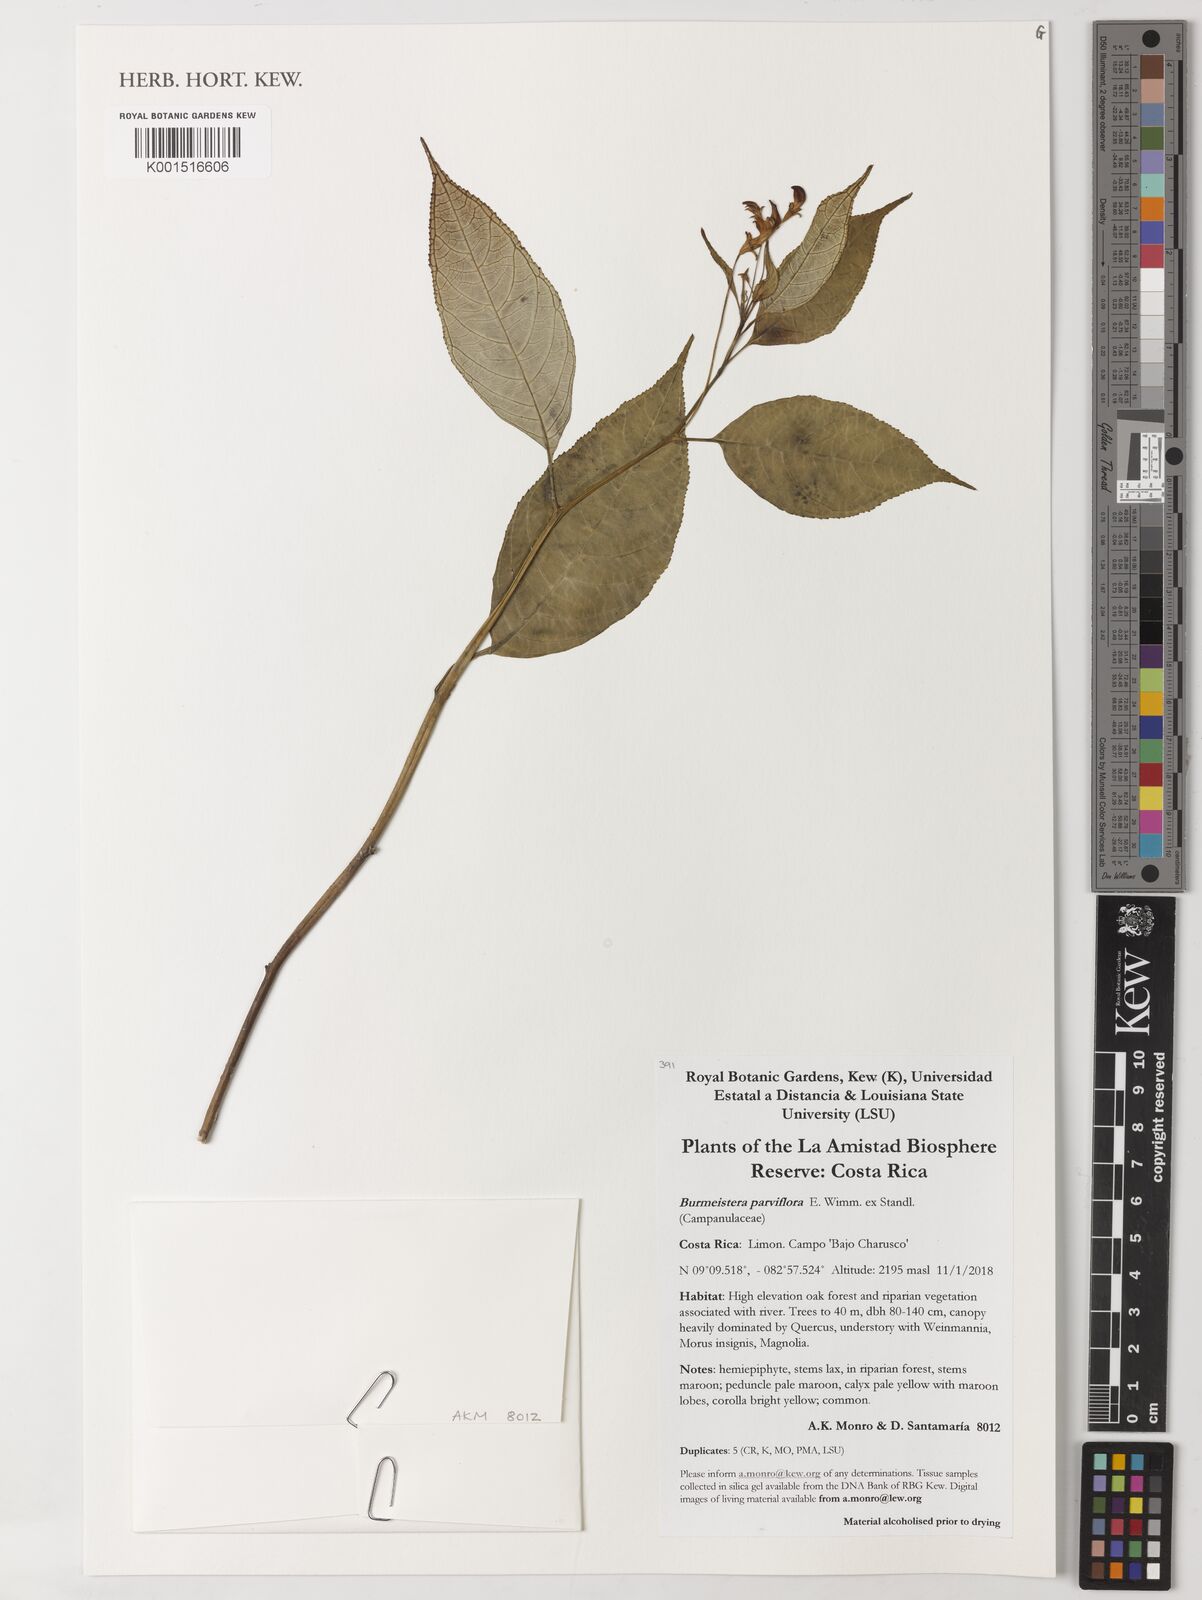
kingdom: Plantae
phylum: Tracheophyta
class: Magnoliopsida
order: Asterales
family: Campanulaceae
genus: Burmeistera
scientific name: Burmeistera parviflora
